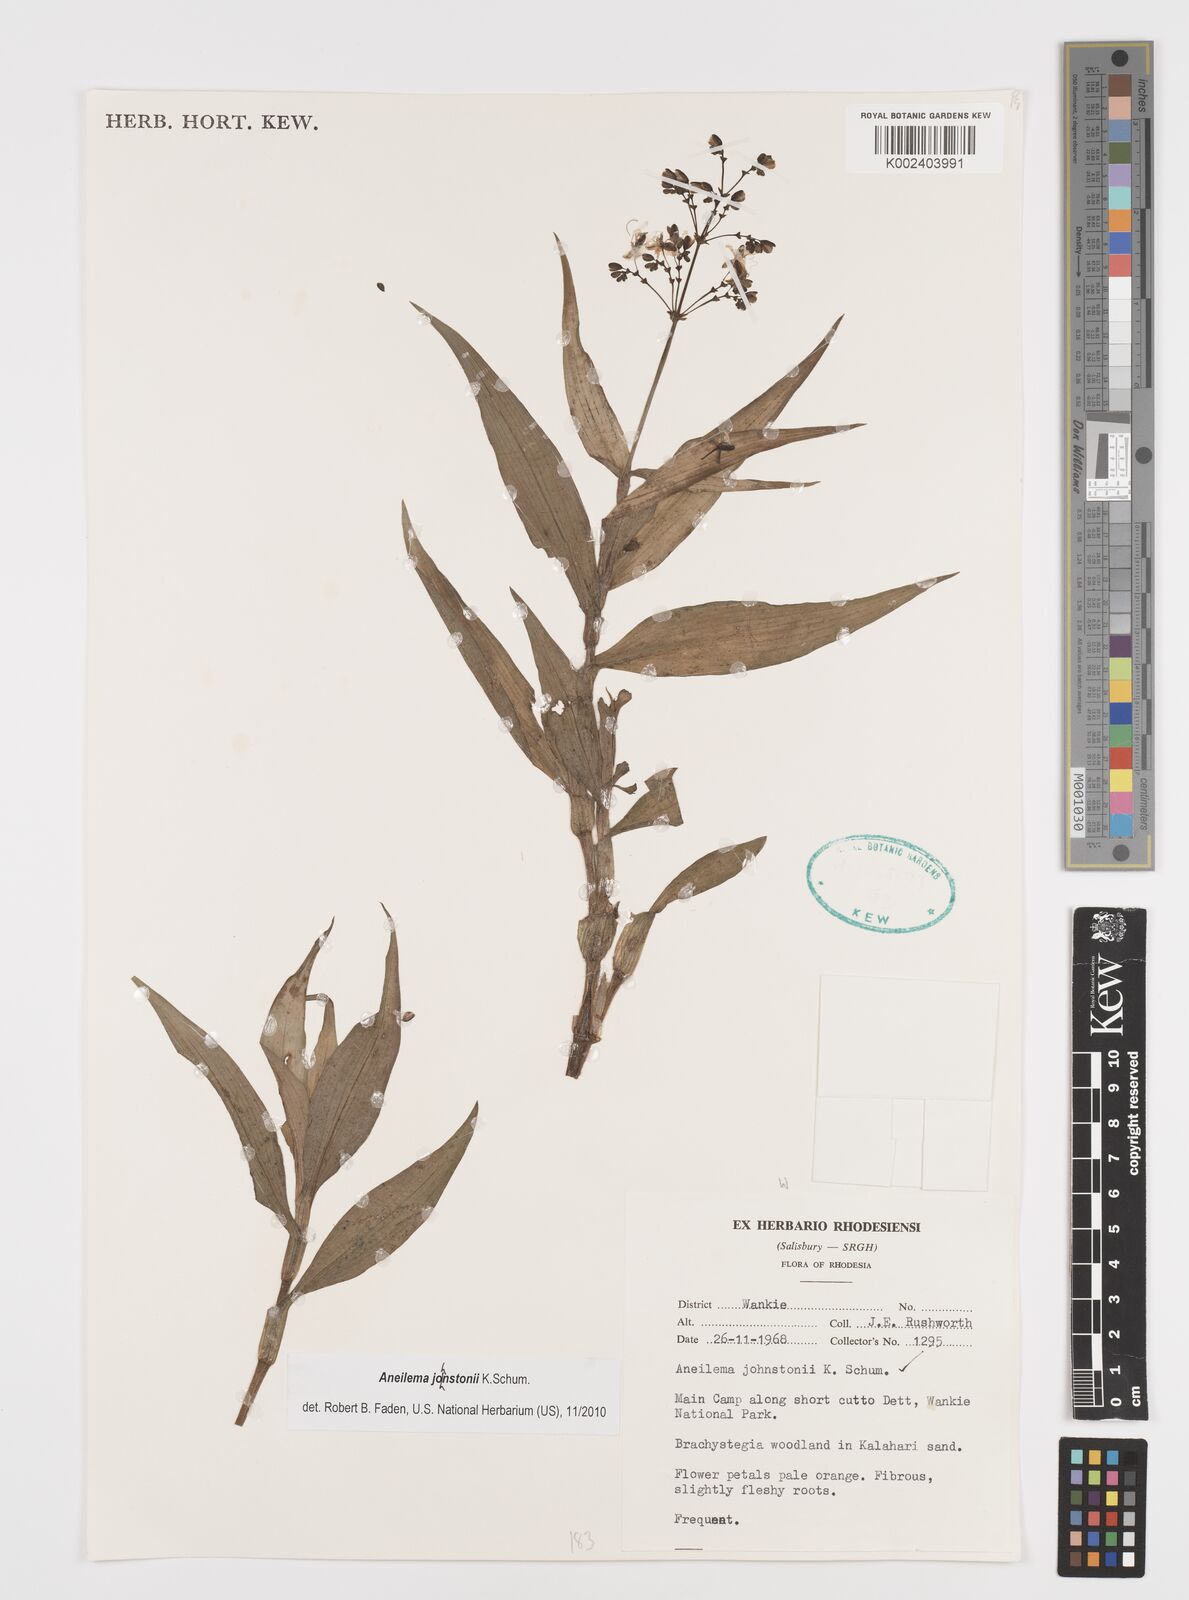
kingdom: Plantae
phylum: Tracheophyta
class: Liliopsida
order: Commelinales
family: Commelinaceae
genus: Aneilema
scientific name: Aneilema johnstonii
